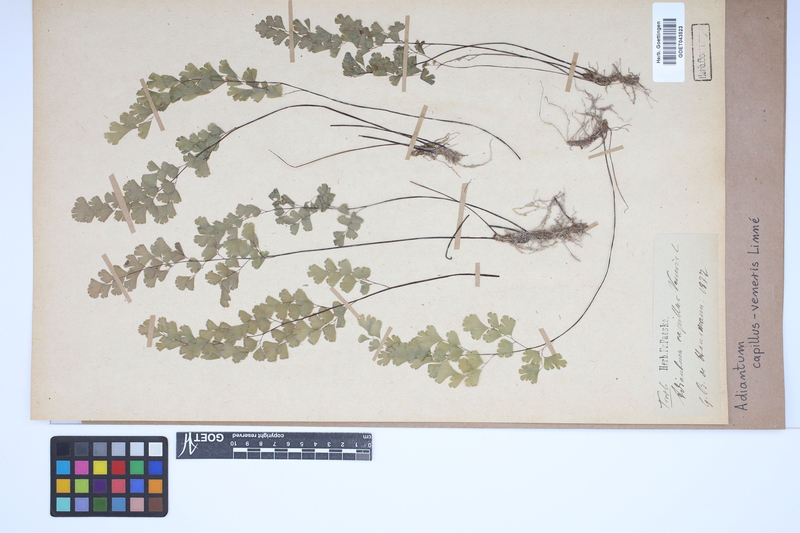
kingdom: Plantae
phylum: Tracheophyta
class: Polypodiopsida
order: Polypodiales
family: Pteridaceae
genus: Adiantum
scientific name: Adiantum capillus-veneris
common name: Maidenhair fern
